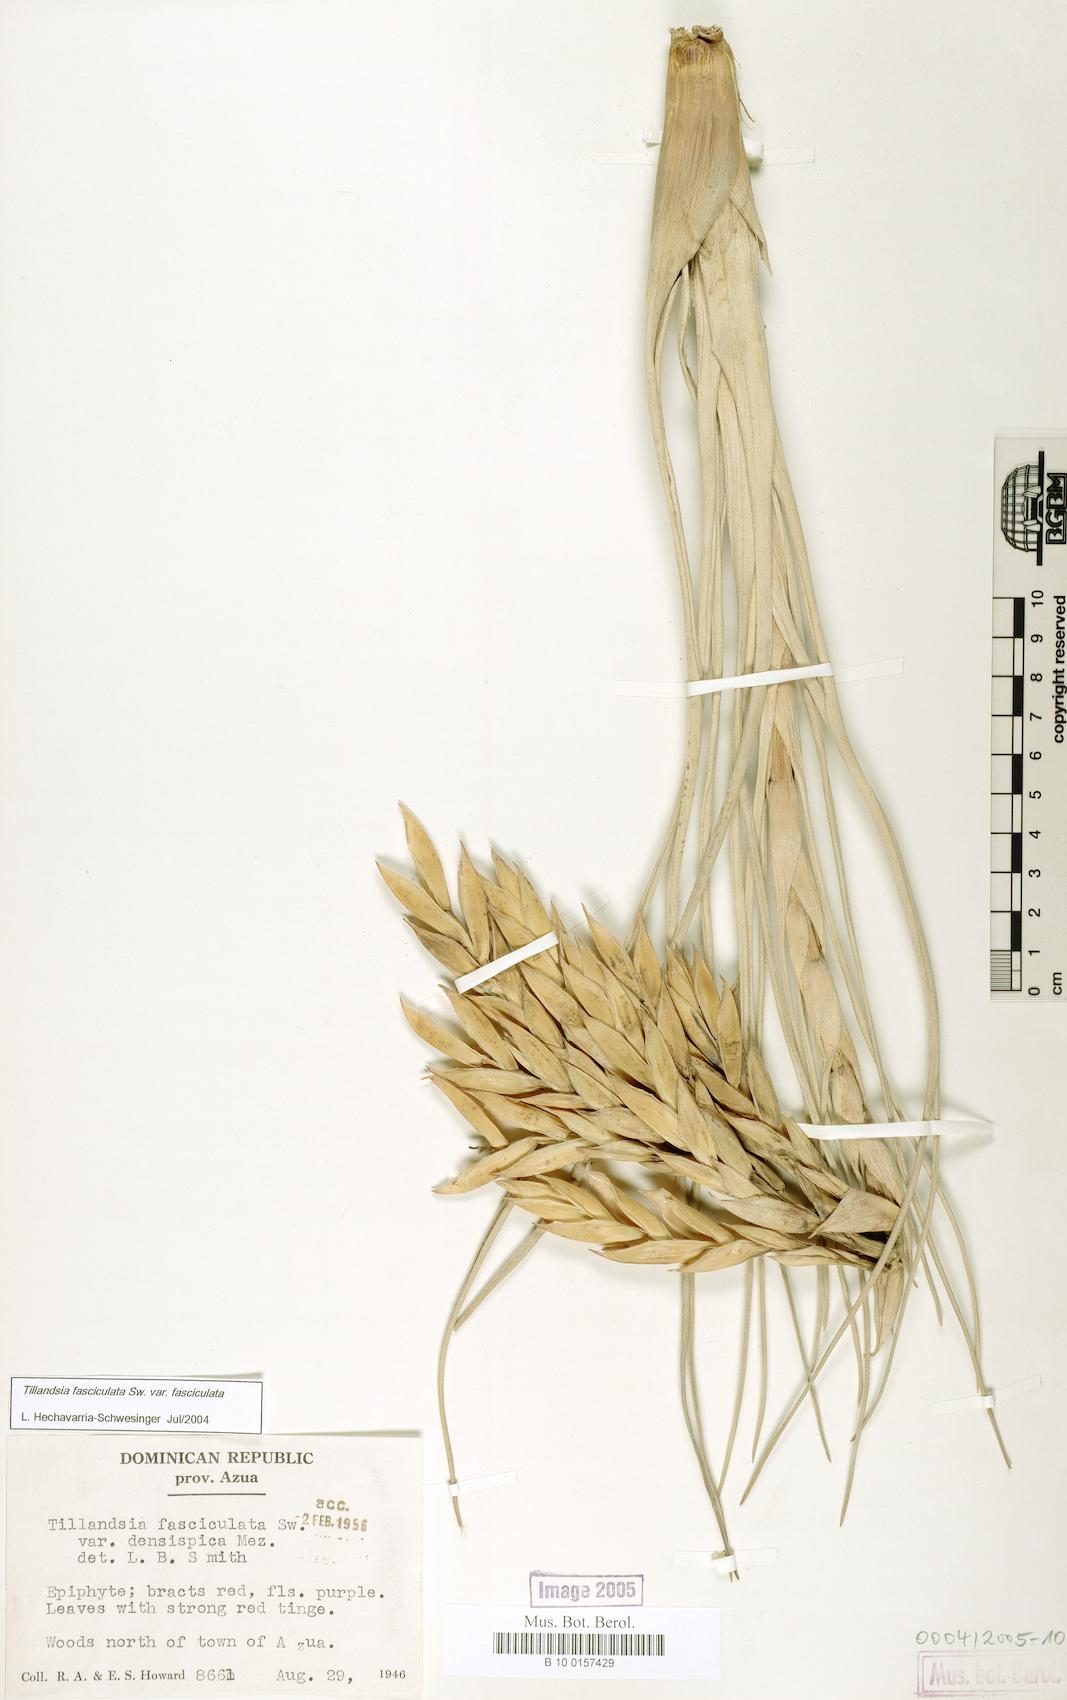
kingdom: Plantae
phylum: Tracheophyta
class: Liliopsida
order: Poales
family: Bromeliaceae
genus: Tillandsia
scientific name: Tillandsia fasciculata
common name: Giant airplant
